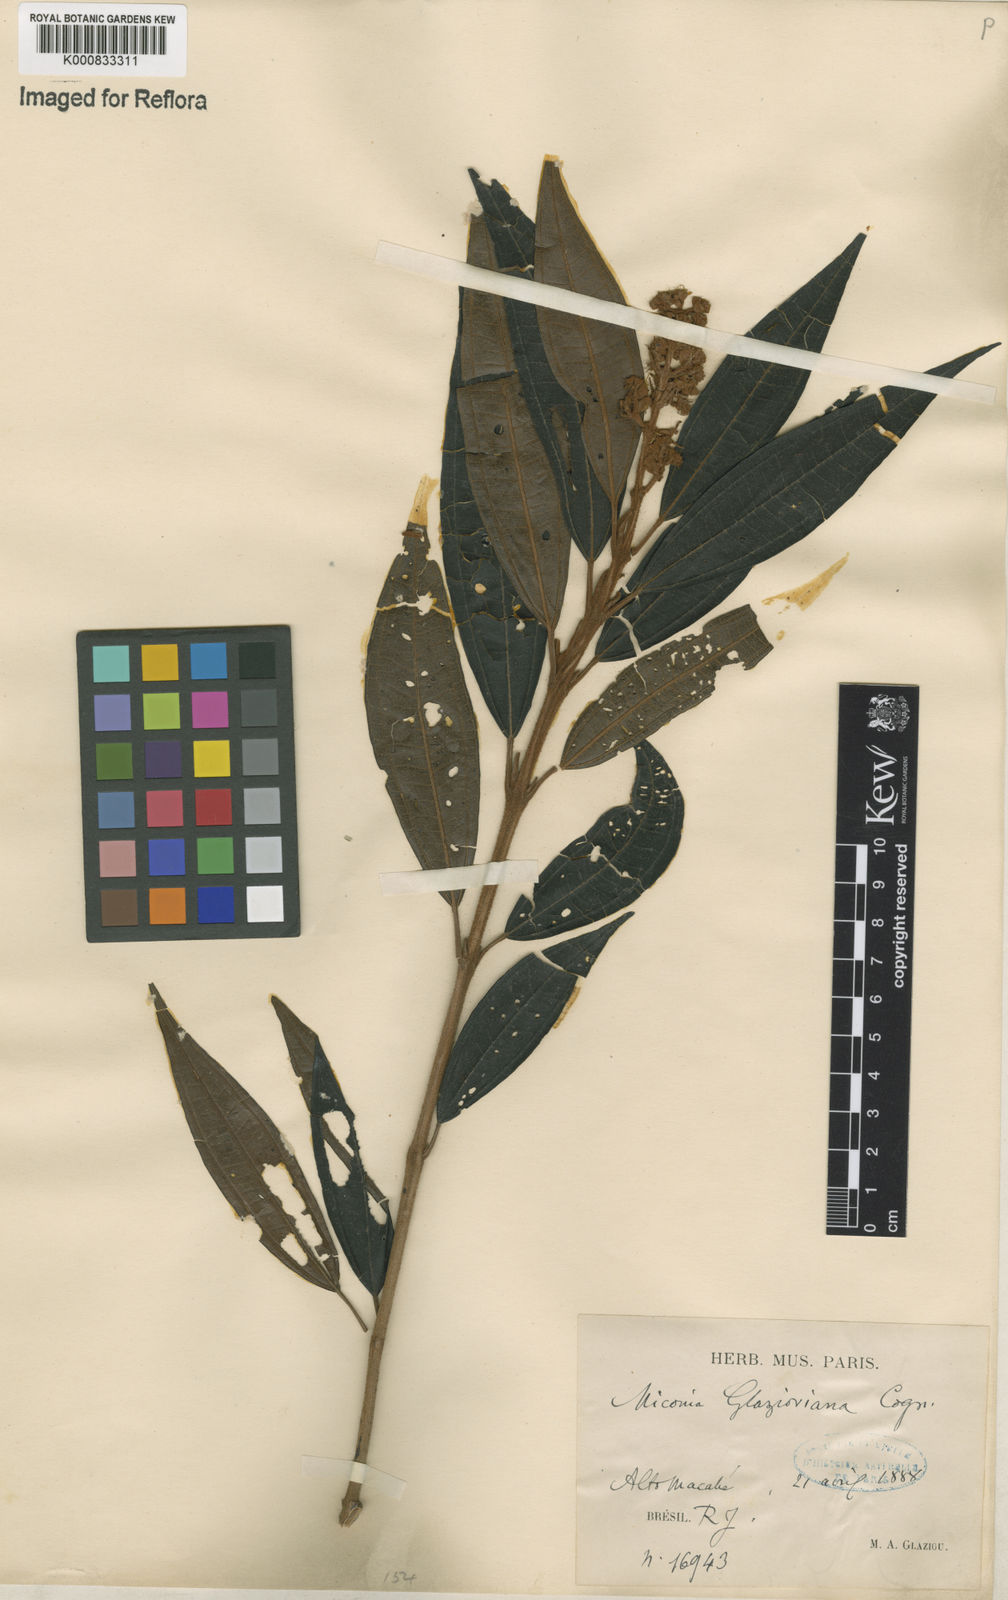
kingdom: Plantae
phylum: Tracheophyta
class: Magnoliopsida
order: Myrtales
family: Melastomataceae
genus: Miconia
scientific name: Miconia glazioviana
